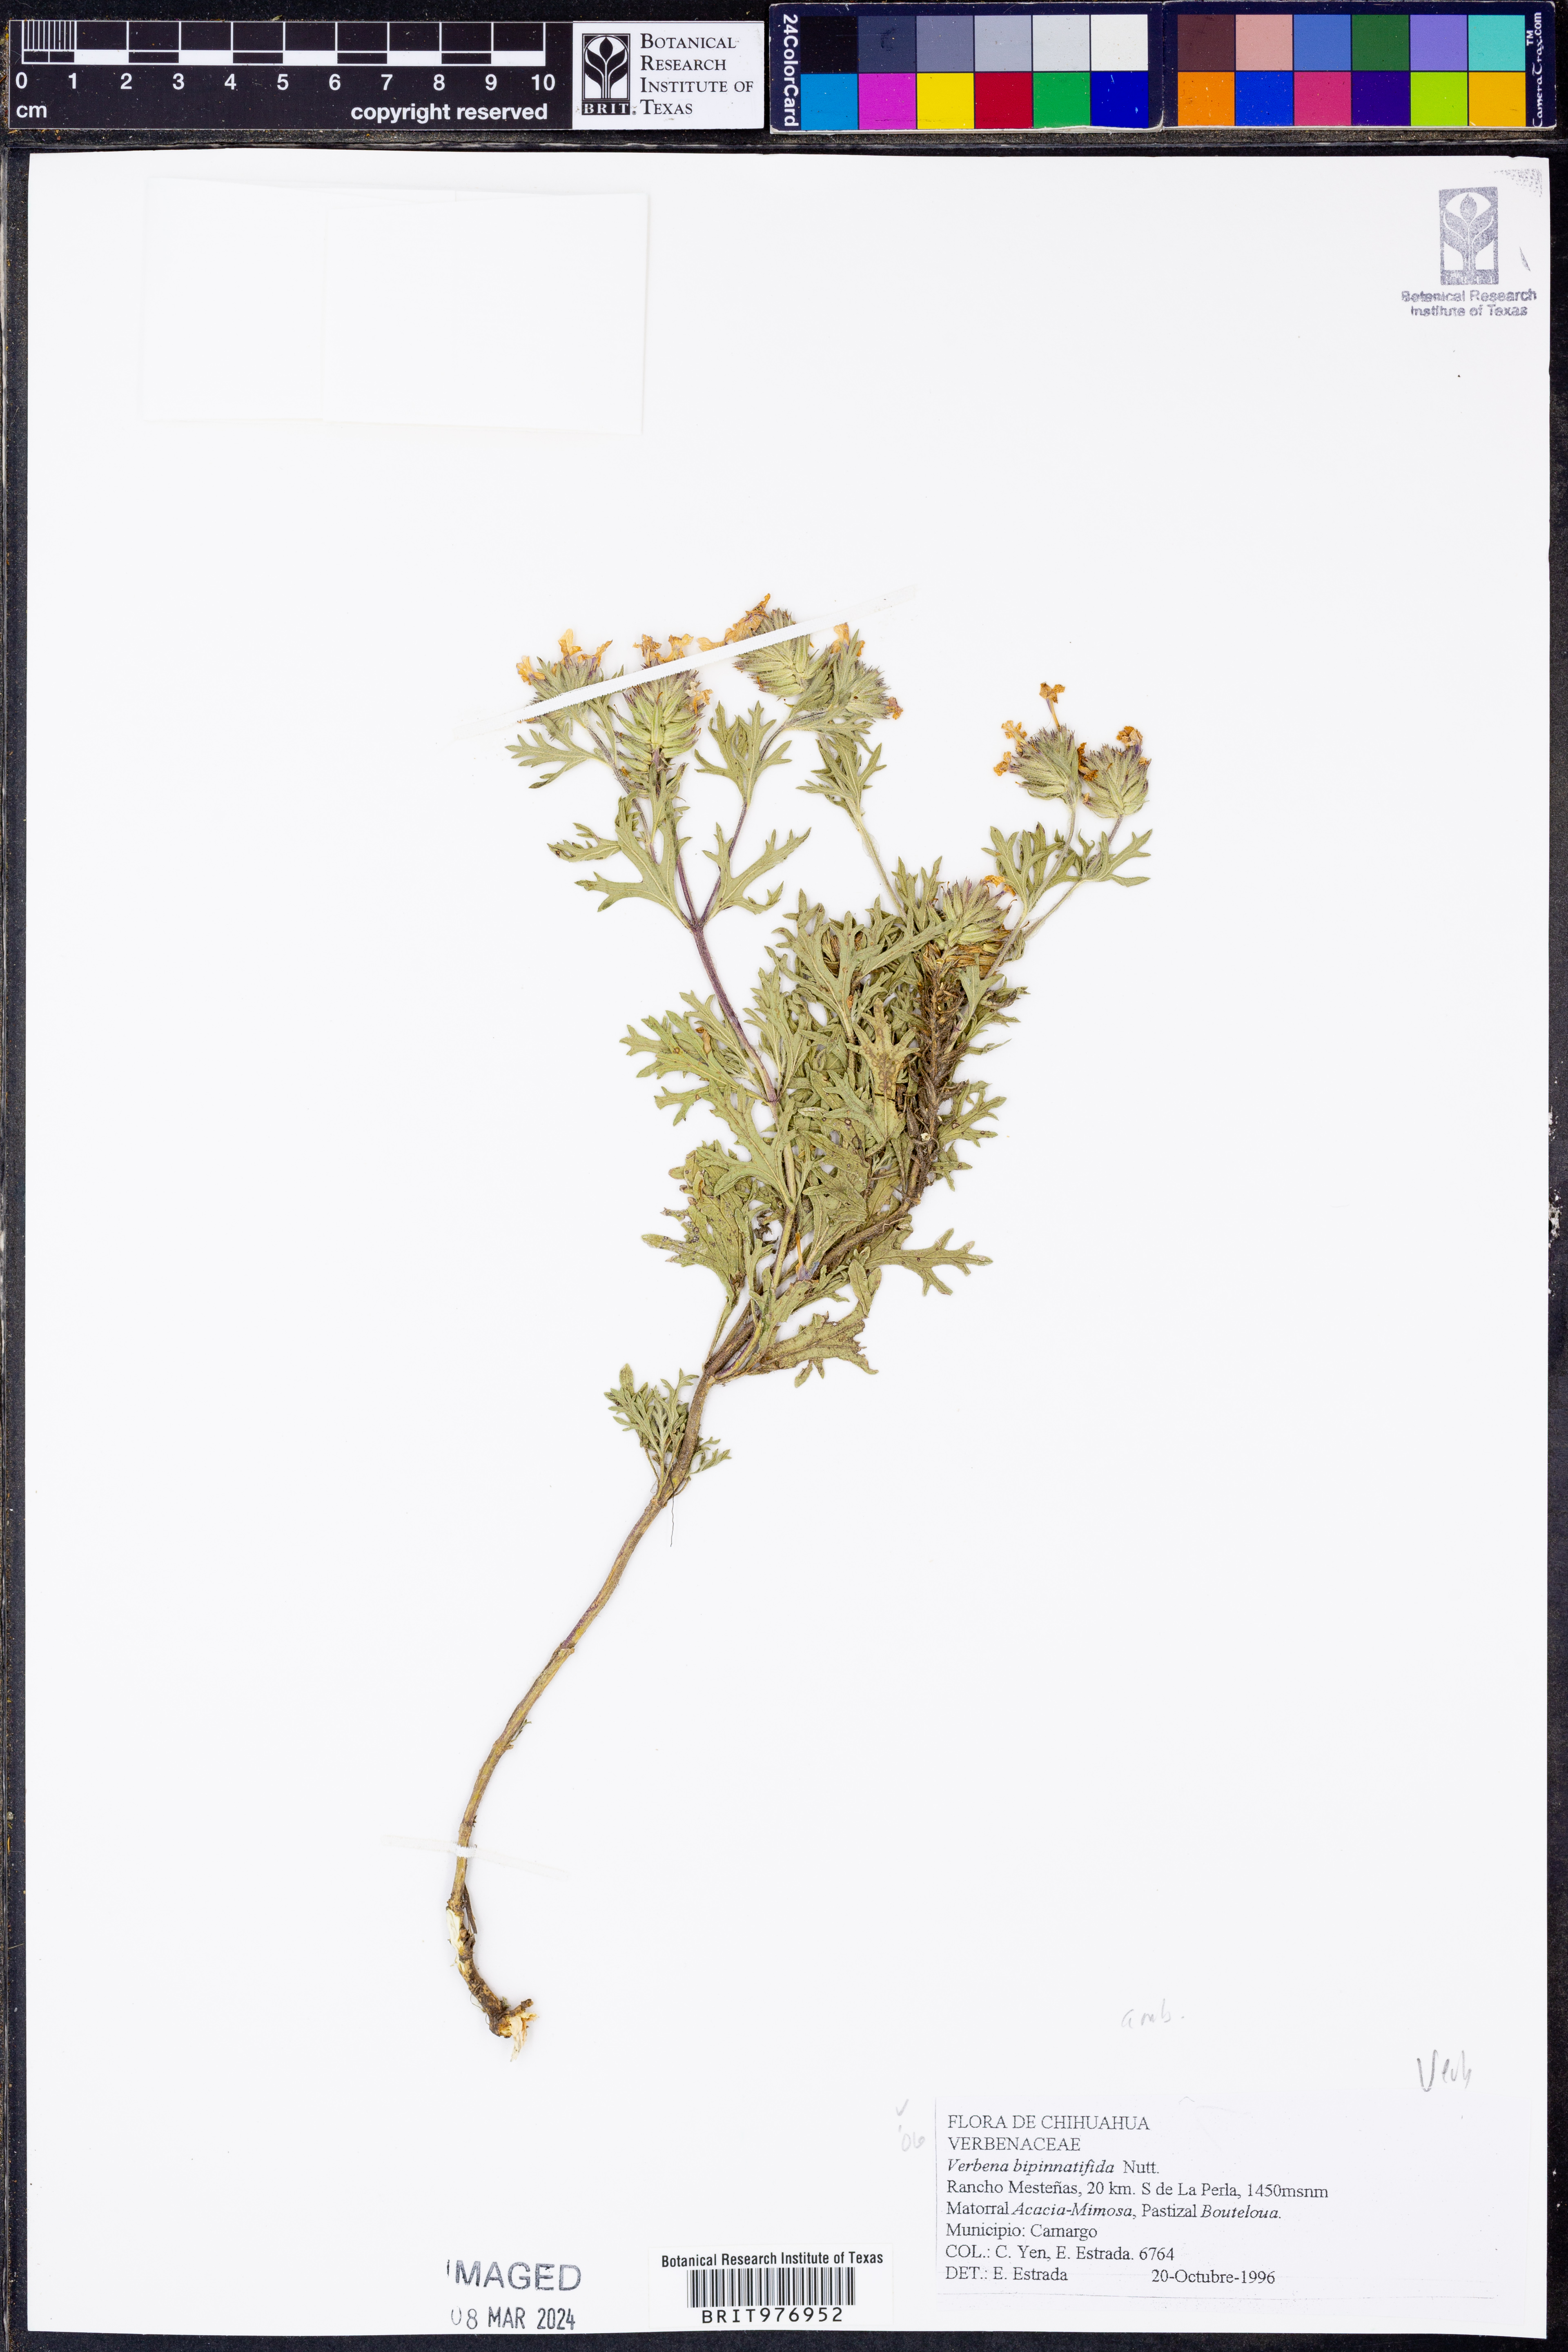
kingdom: Plantae
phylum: Tracheophyta
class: Magnoliopsida
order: Lamiales
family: Verbenaceae
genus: Verbena
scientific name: Verbena
